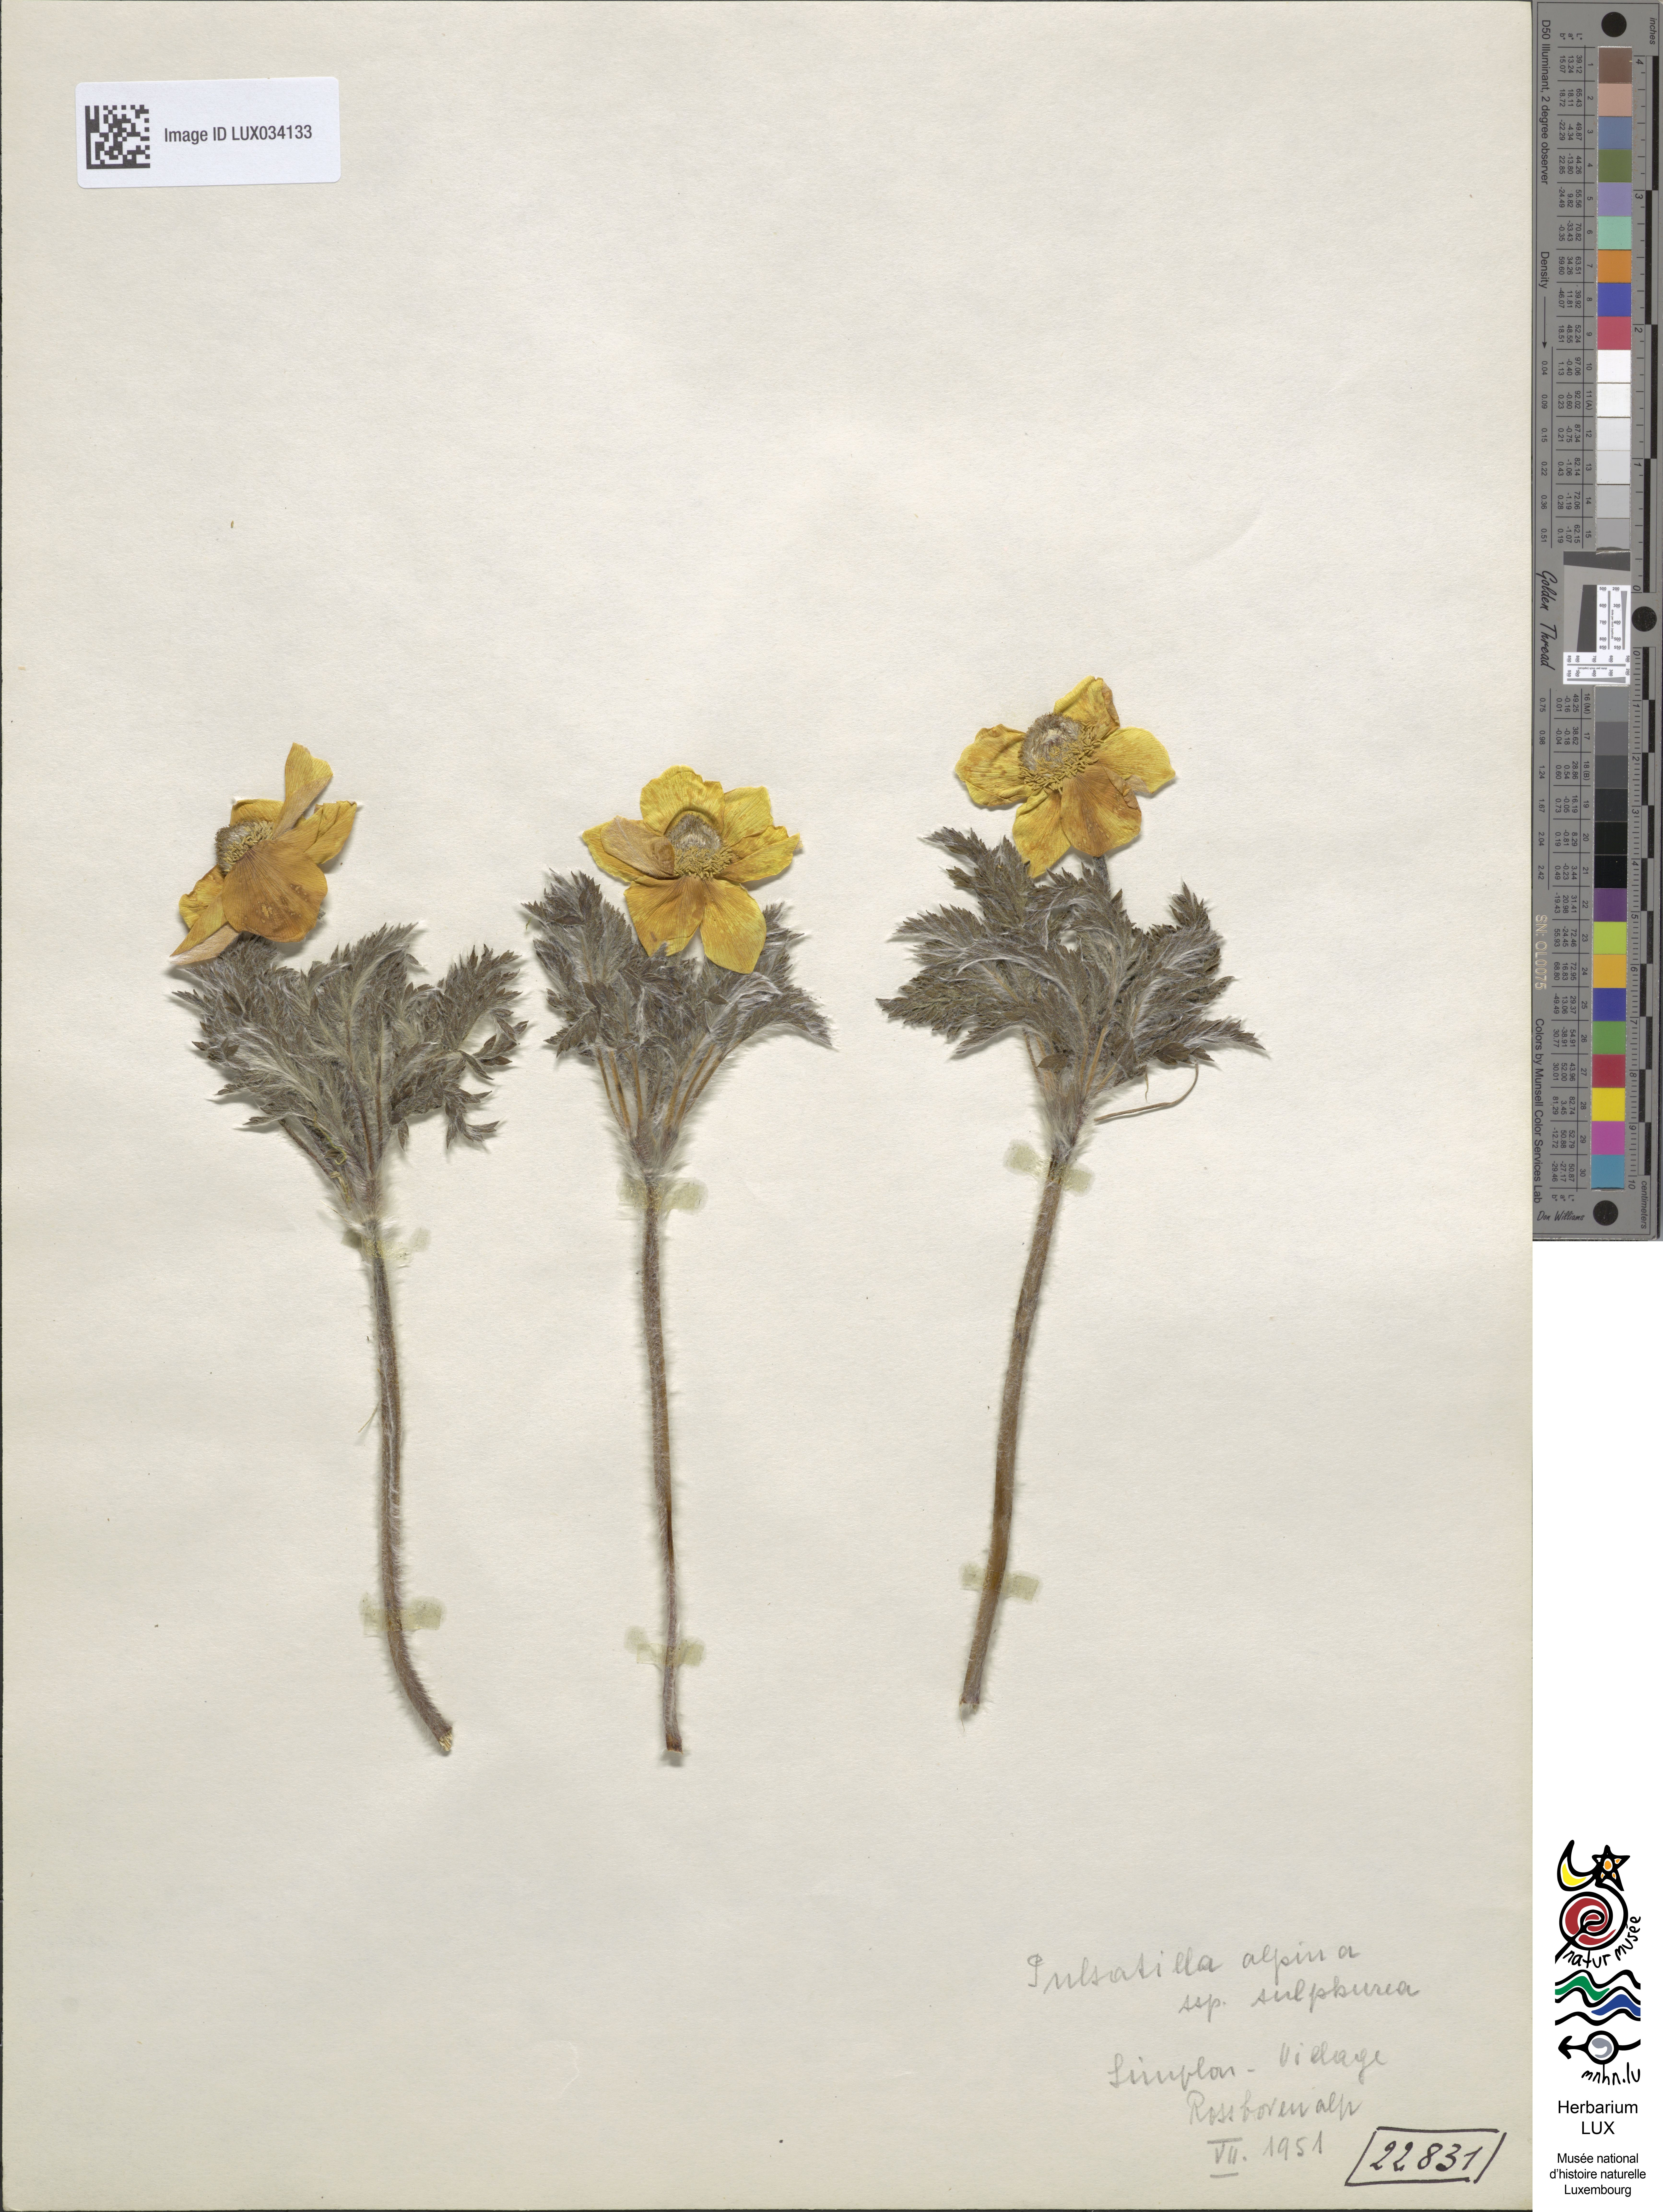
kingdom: Plantae
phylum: Tracheophyta
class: Magnoliopsida
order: Ranunculales
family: Ranunculaceae
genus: Pulsatilla
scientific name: Pulsatilla alpina
